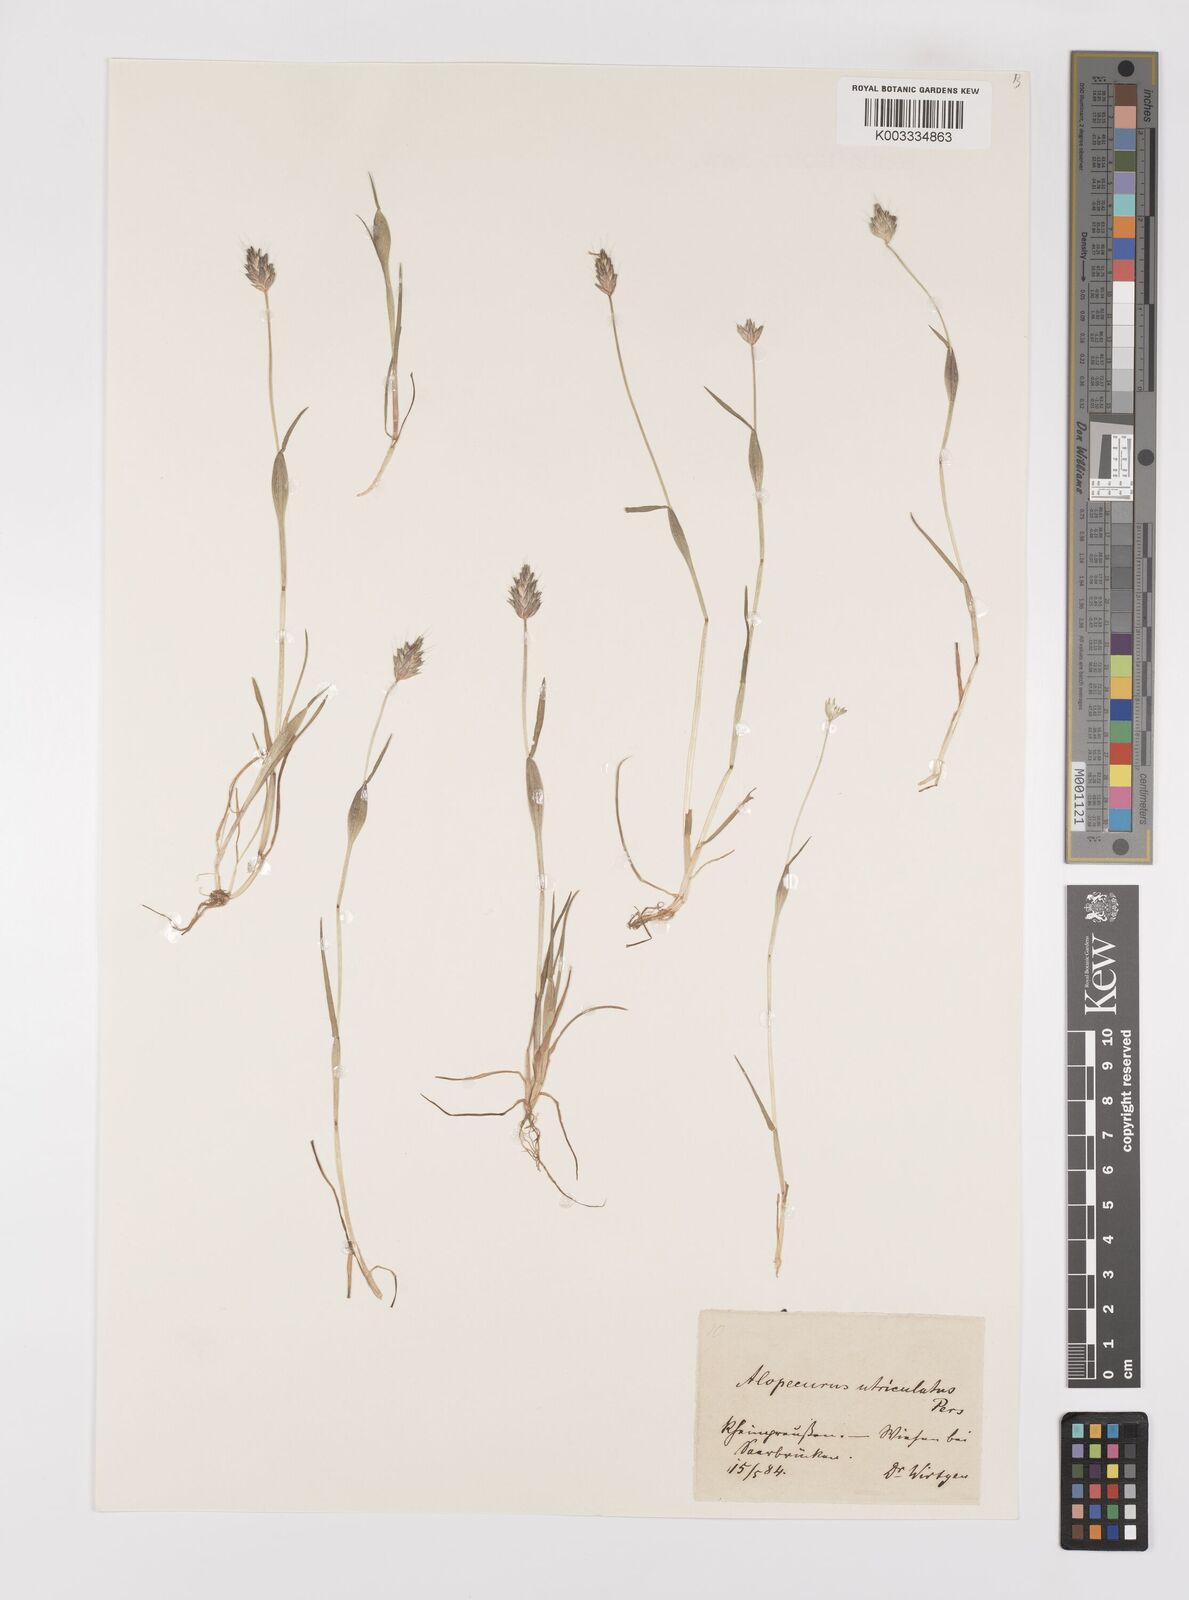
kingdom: Plantae
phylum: Tracheophyta
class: Liliopsida
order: Poales
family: Poaceae
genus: Alopecurus
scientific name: Alopecurus rendlei
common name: Rendle's meadow foxtail
